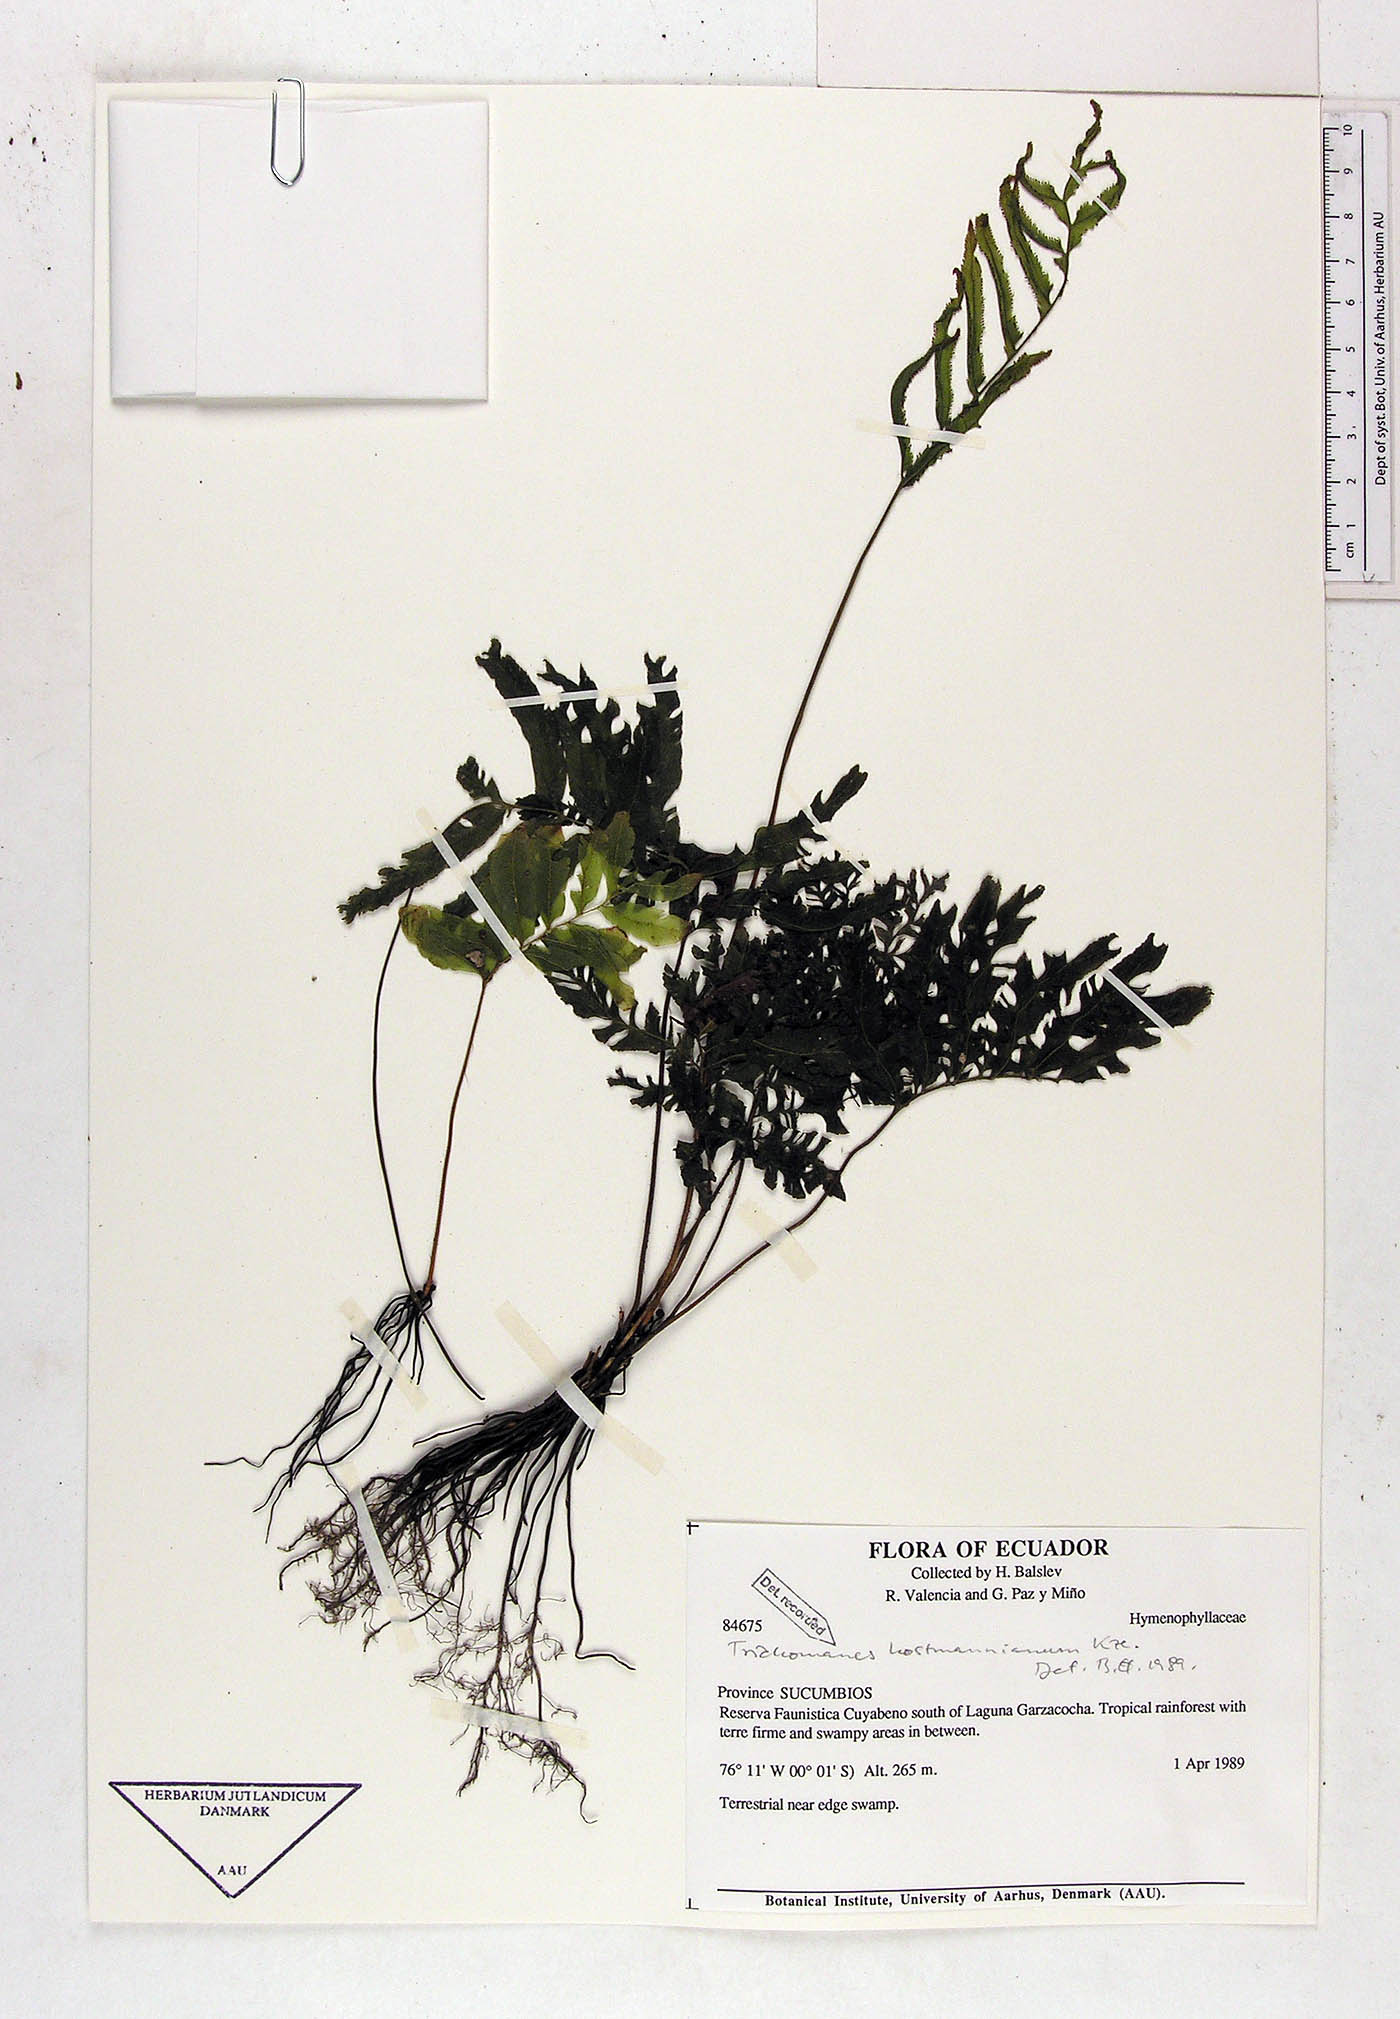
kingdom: Plantae
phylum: Tracheophyta
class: Polypodiopsida
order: Hymenophyllales
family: Hymenophyllaceae
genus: Trichomanes
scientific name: Trichomanes hostmannianum
